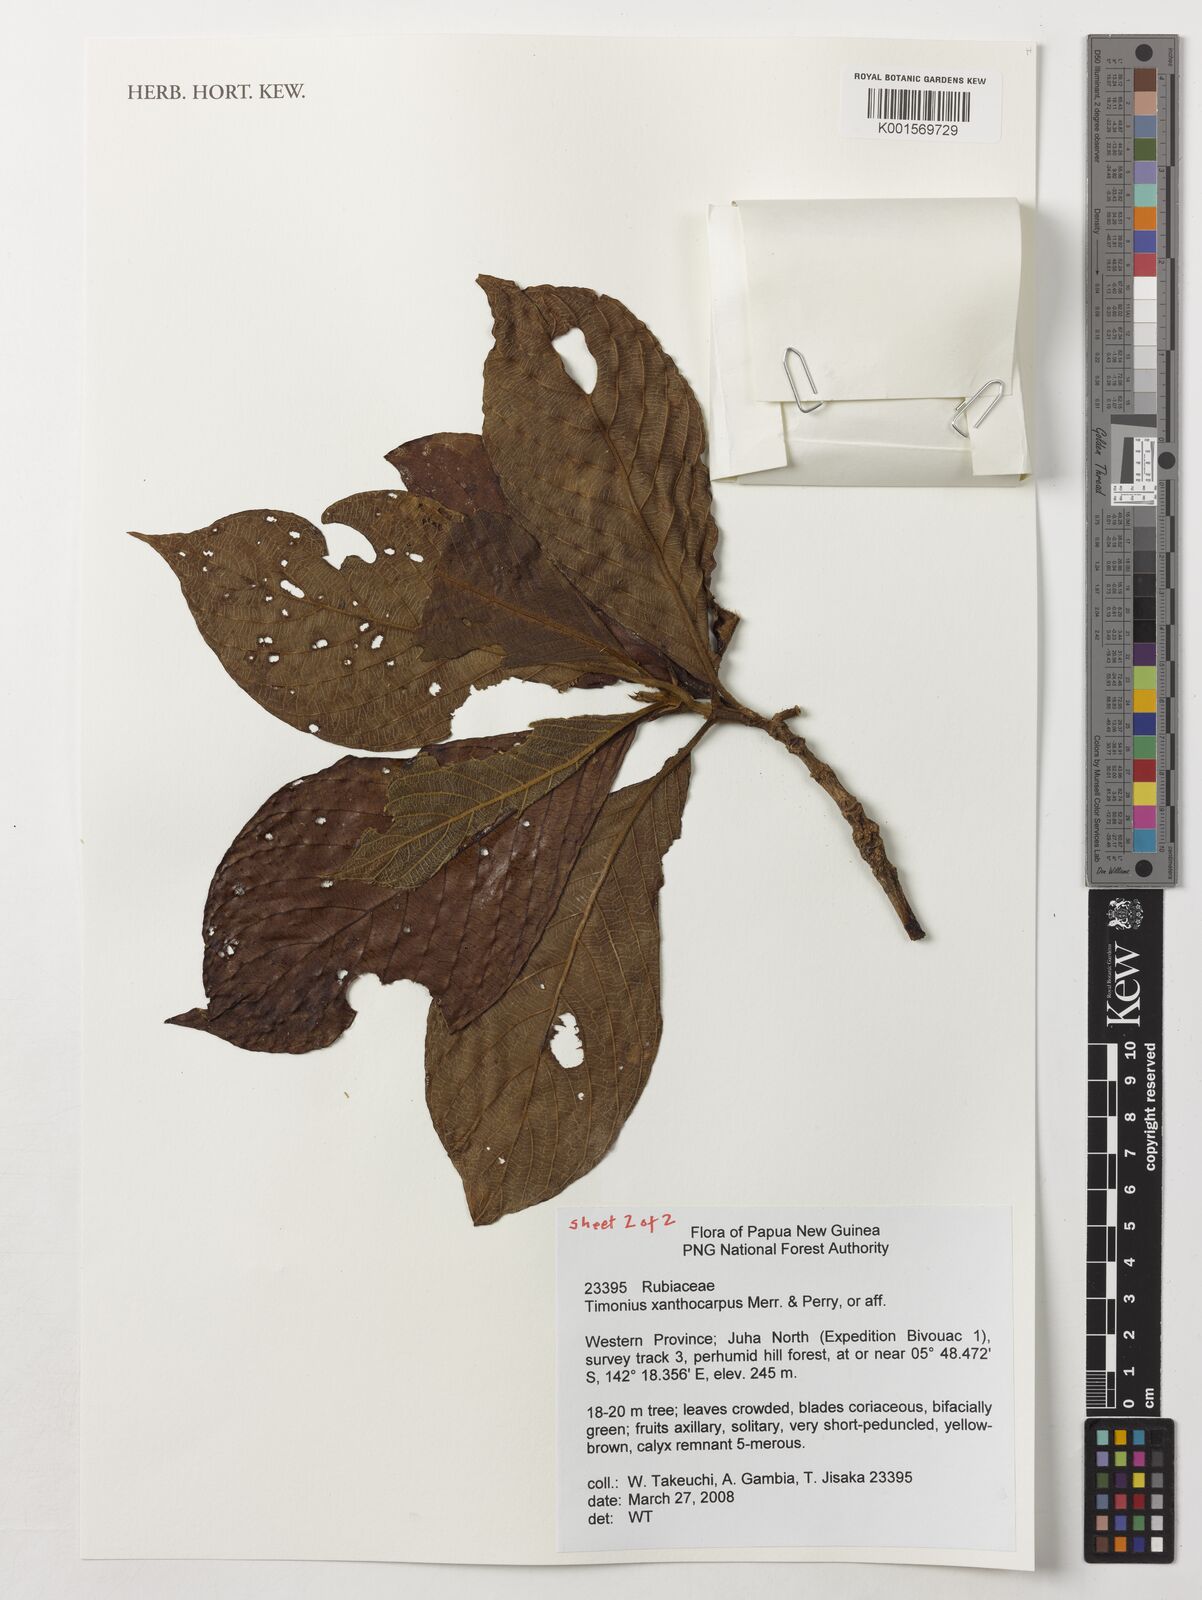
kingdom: Plantae
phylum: Tracheophyta
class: Magnoliopsida
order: Gentianales
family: Rubiaceae
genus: Timonius
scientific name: Timonius xanthocarpus
